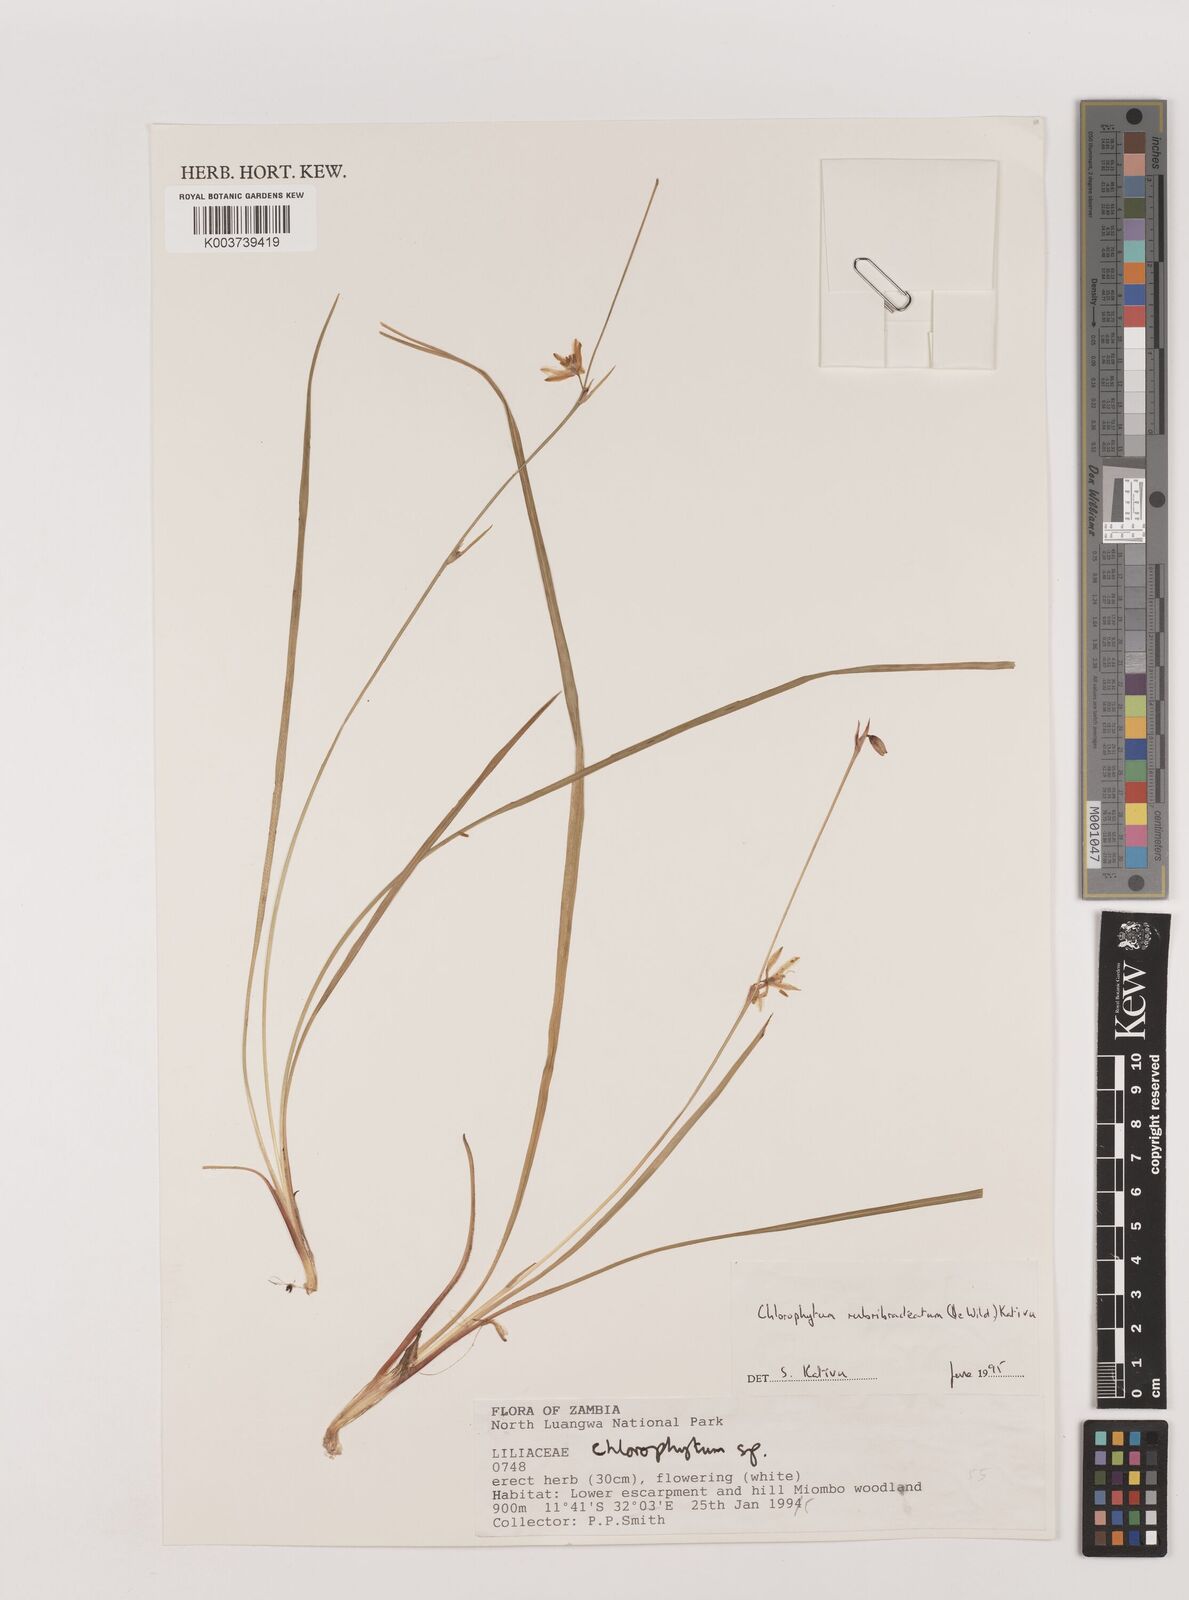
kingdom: Plantae
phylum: Tracheophyta
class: Liliopsida
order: Asparagales
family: Asparagaceae
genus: Chlorophytum
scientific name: Chlorophytum rubribracteatum
